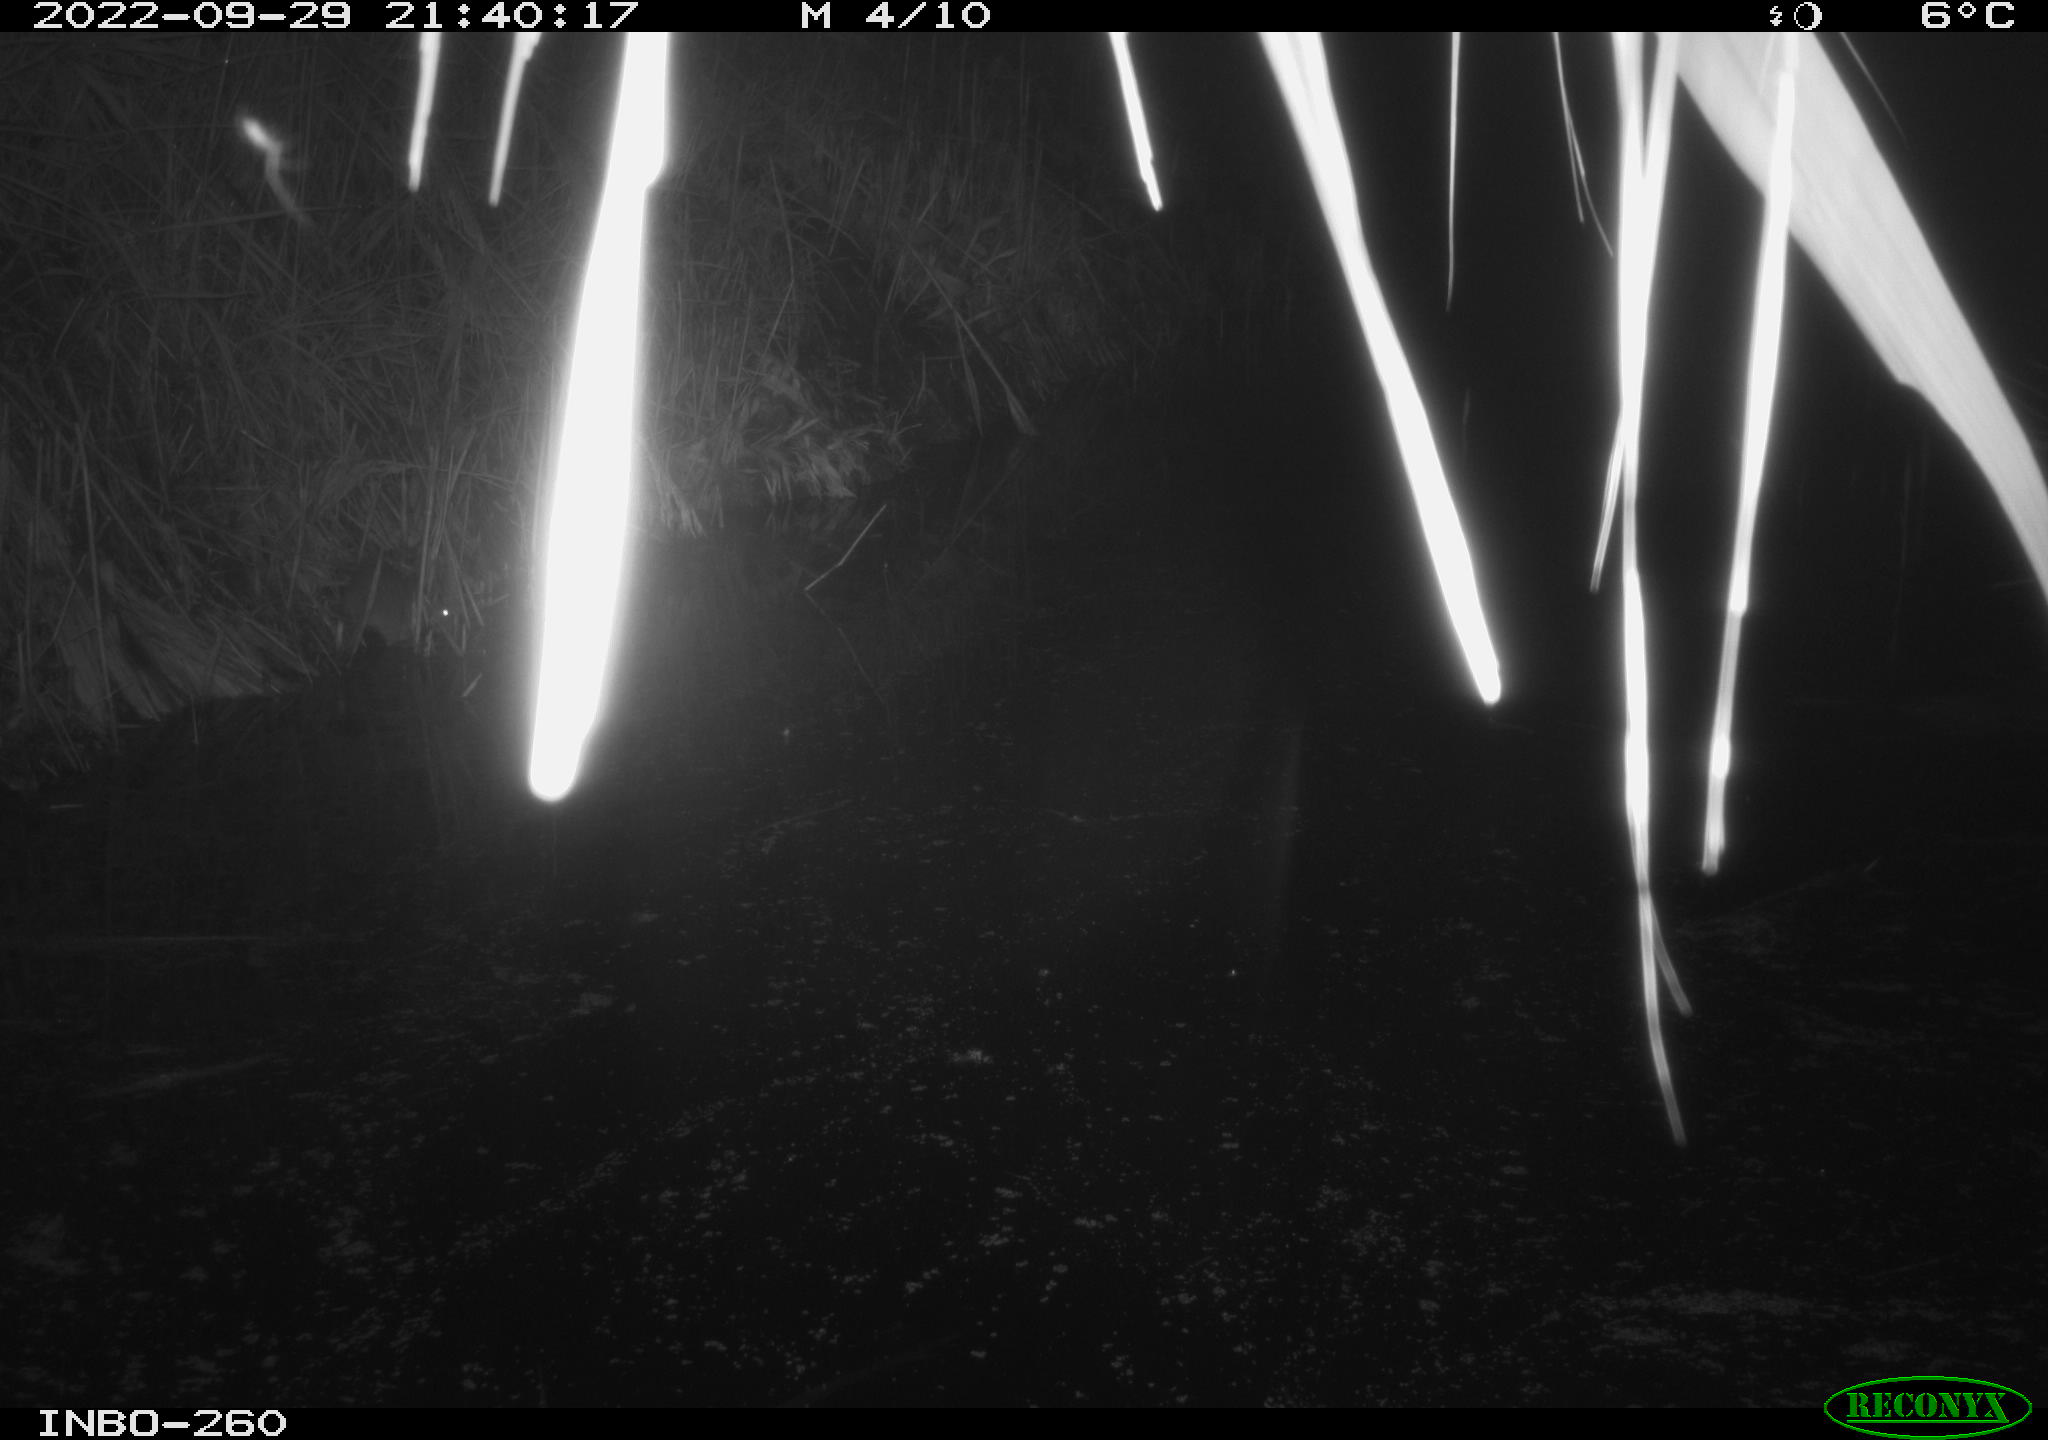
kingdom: Animalia
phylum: Chordata
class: Mammalia
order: Rodentia
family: Muridae
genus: Rattus
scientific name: Rattus norvegicus
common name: Brown rat
